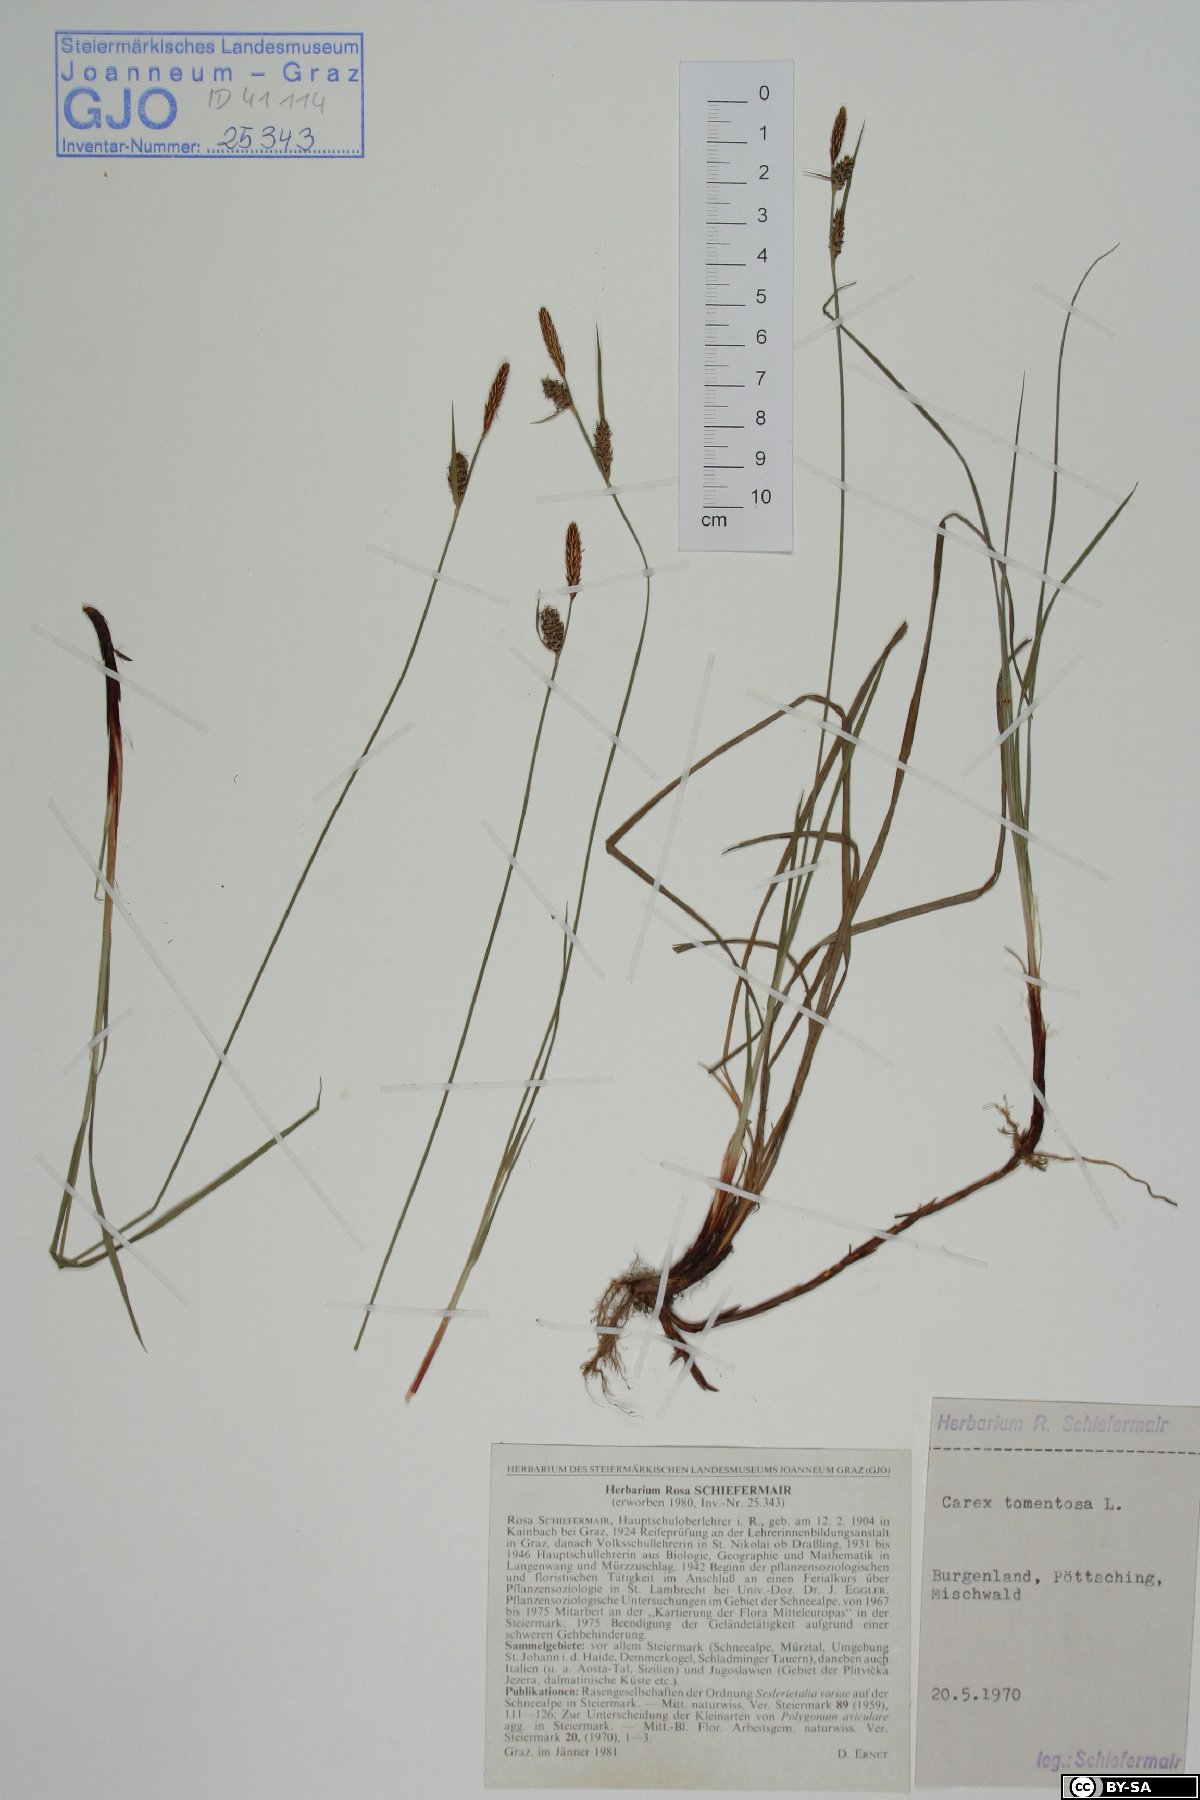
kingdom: Plantae
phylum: Tracheophyta
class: Liliopsida
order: Poales
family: Cyperaceae
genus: Carex
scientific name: Carex tomentosa
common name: Downy-fruited sedge
